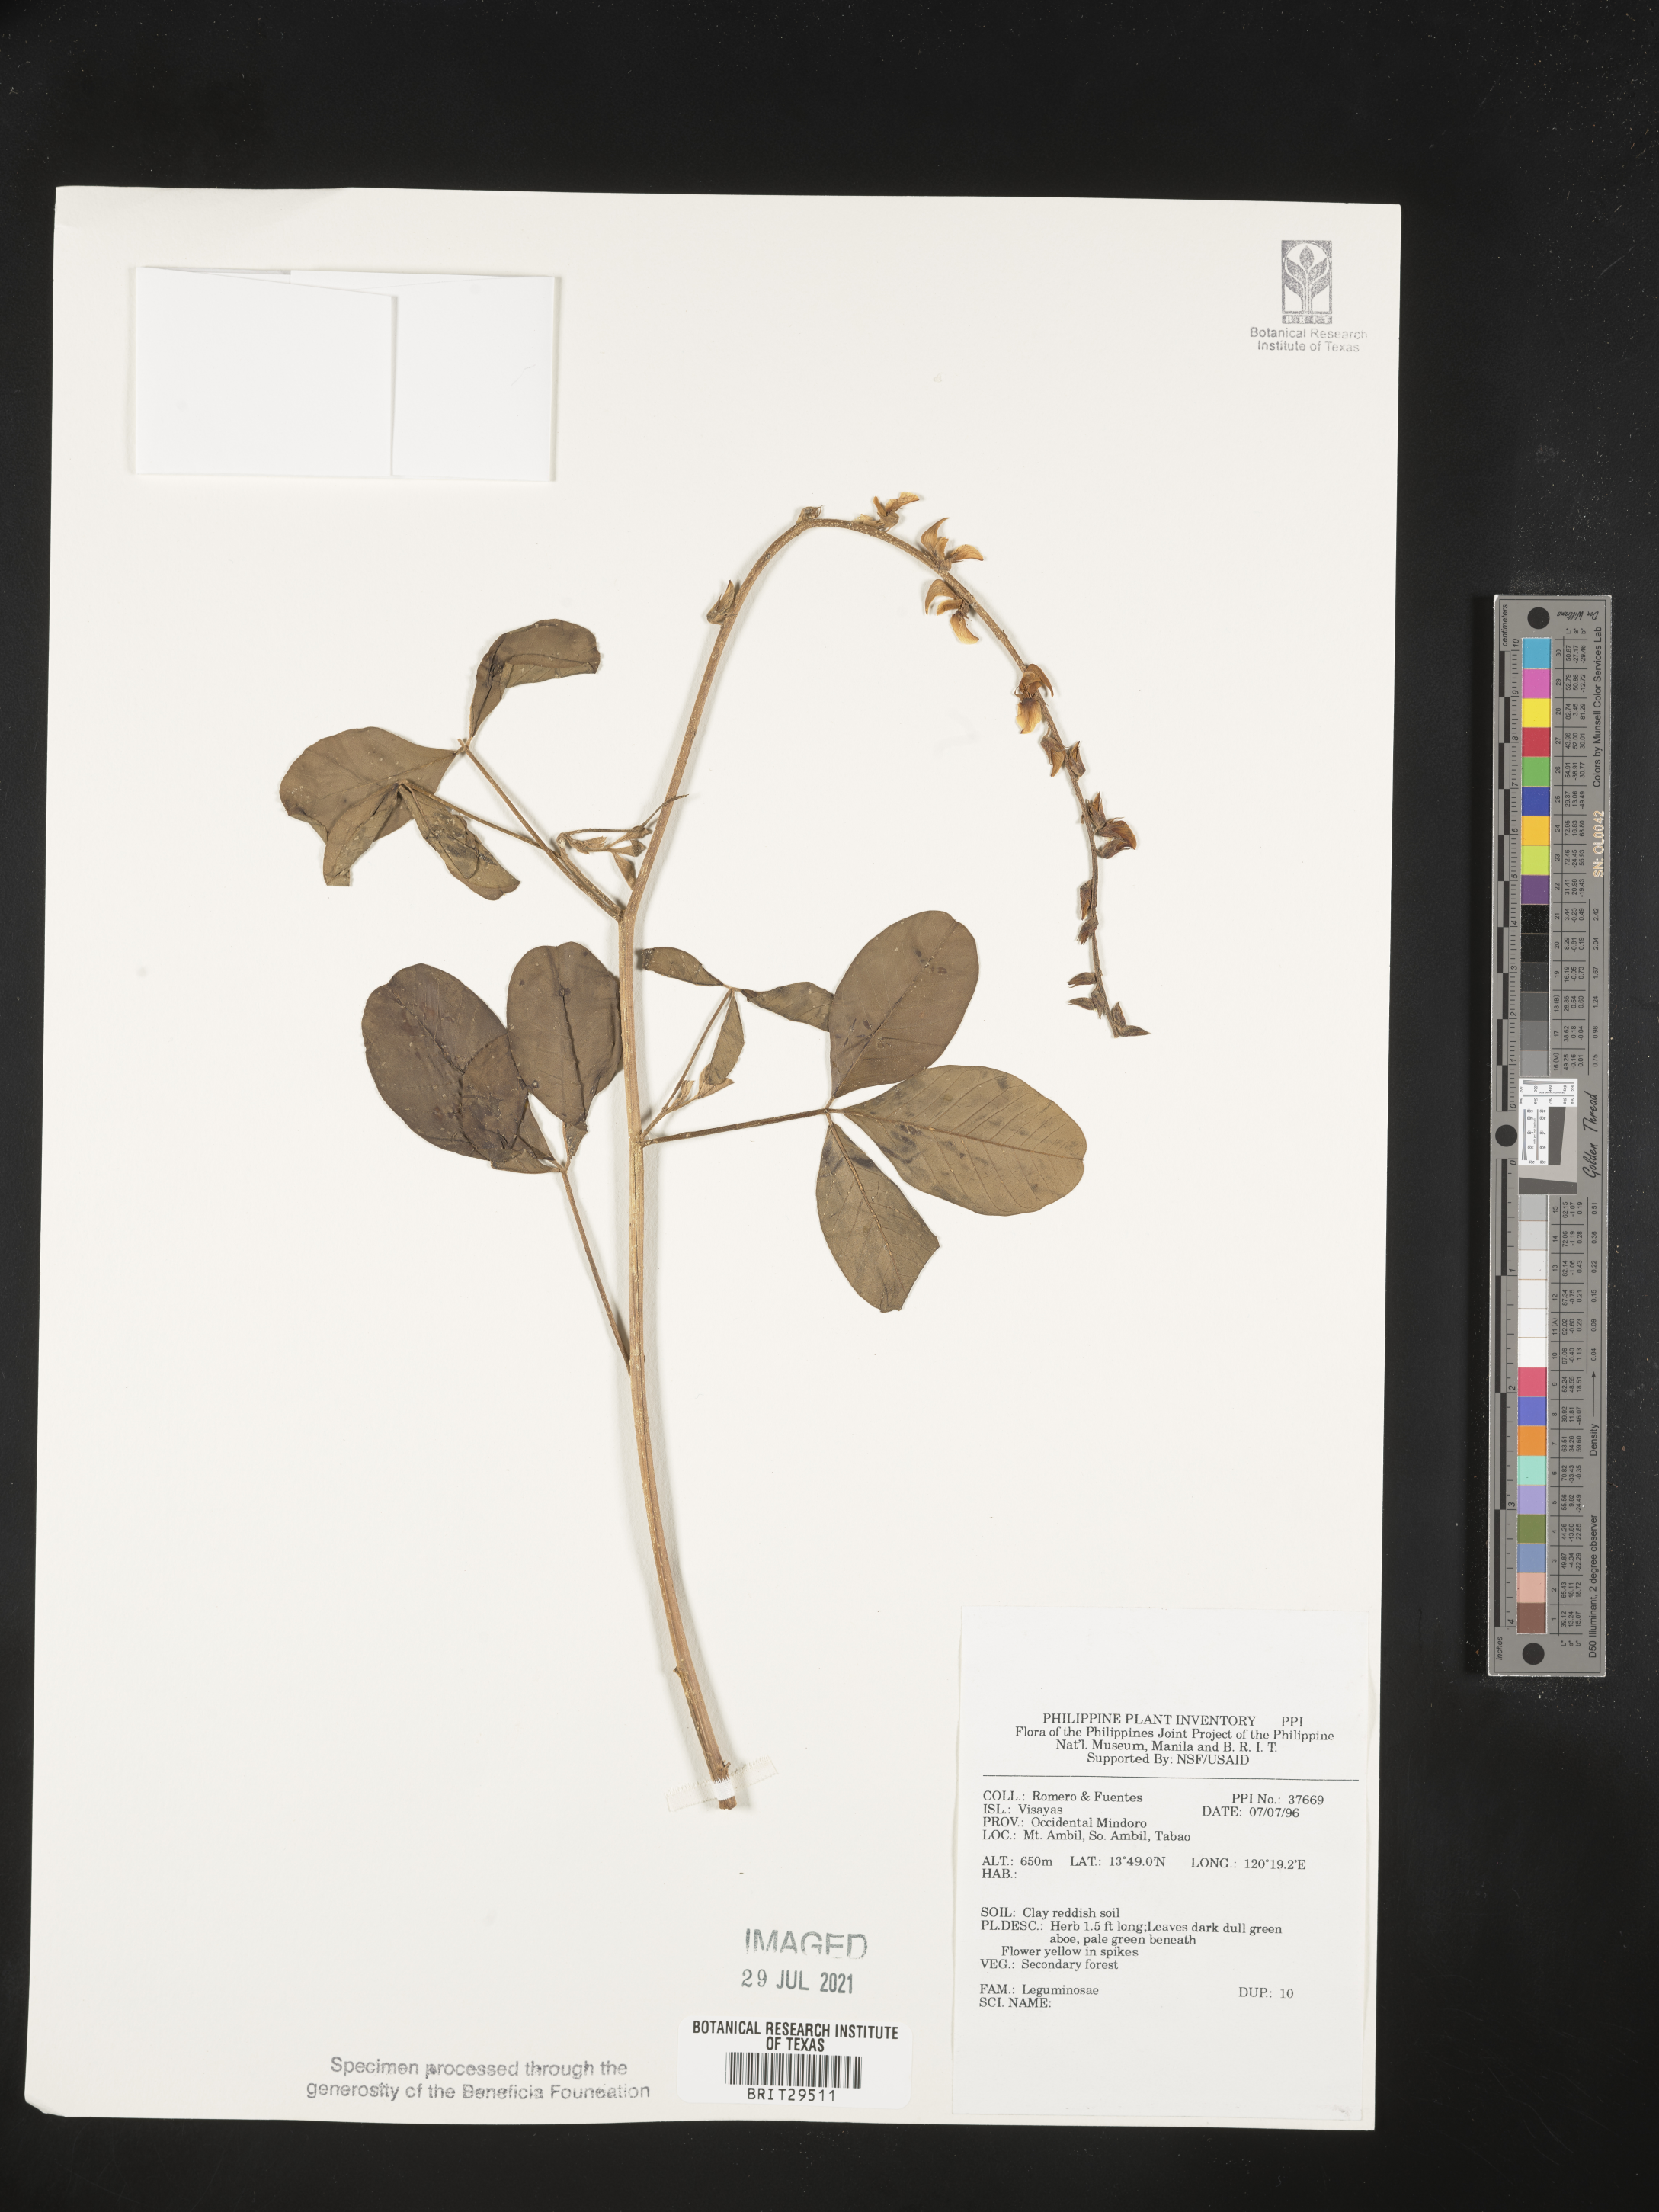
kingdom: Plantae
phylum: Tracheophyta
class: Magnoliopsida
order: Fabales
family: Fabaceae
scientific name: Fabaceae
